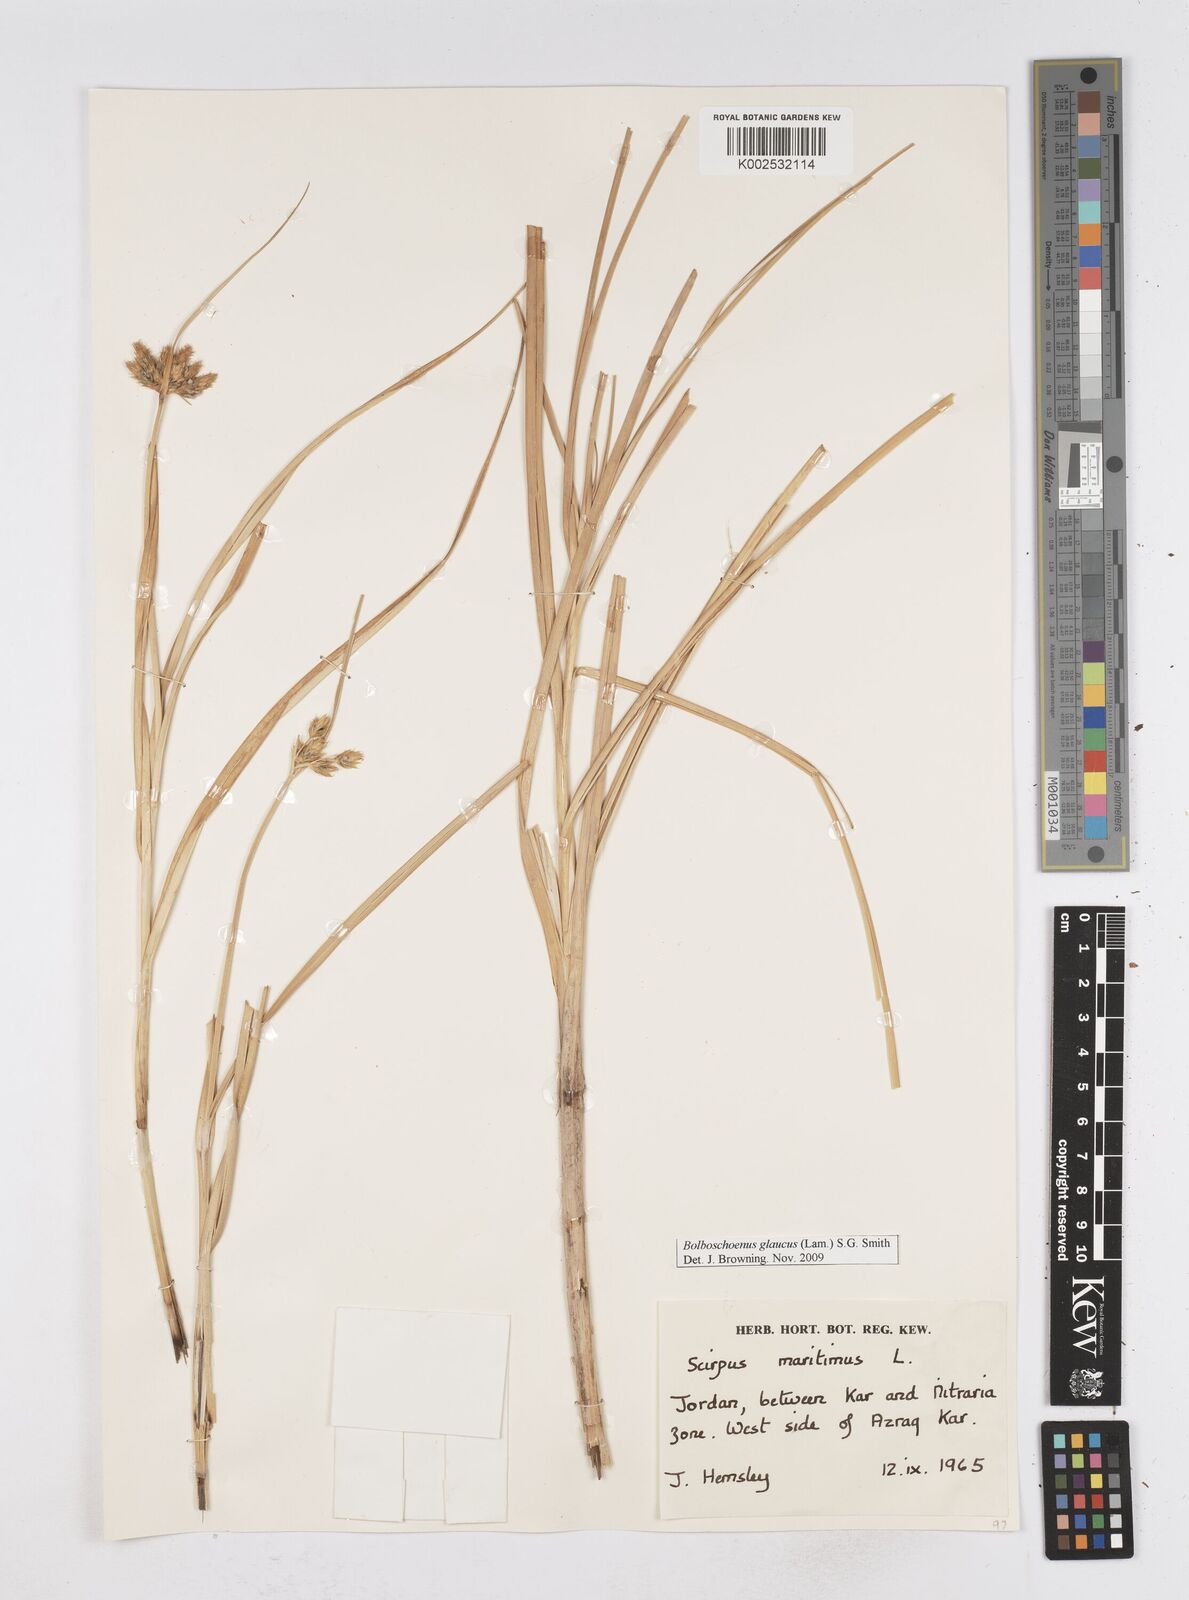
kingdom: Plantae
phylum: Tracheophyta
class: Liliopsida
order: Poales
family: Cyperaceae
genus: Bolboschoenus
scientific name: Bolboschoenus maritimus
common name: Sea club-rush
